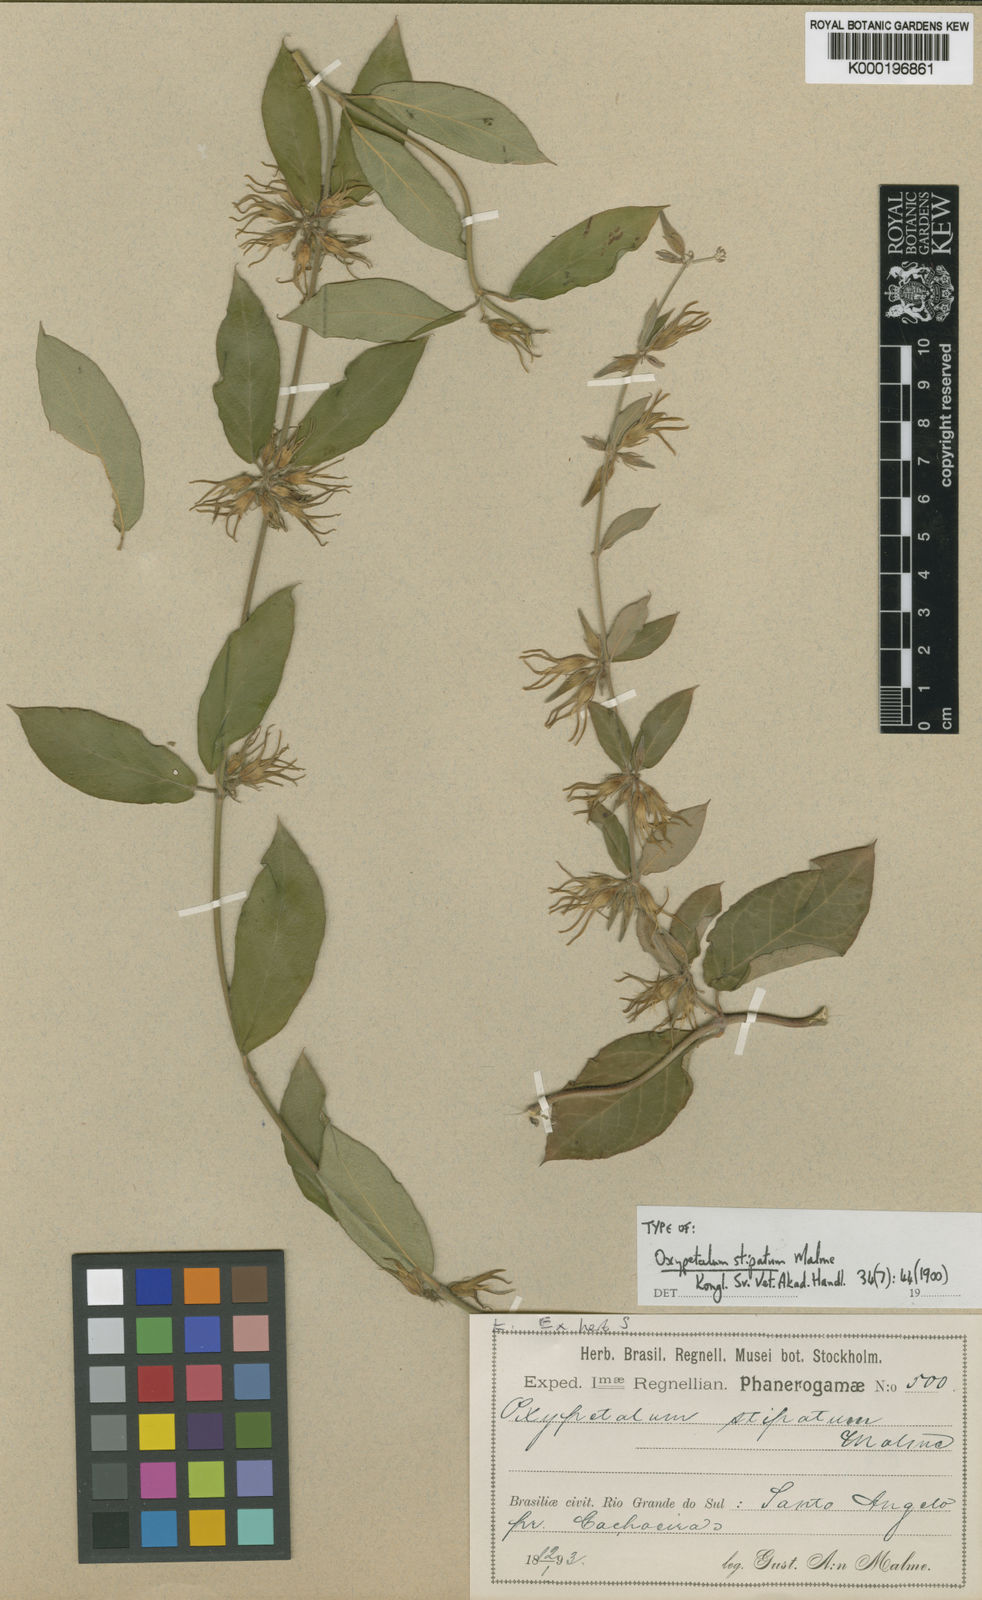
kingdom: Plantae
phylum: Tracheophyta
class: Magnoliopsida
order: Gentianales
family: Apocynaceae
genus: Oxypetalum
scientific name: Oxypetalum stipatum
